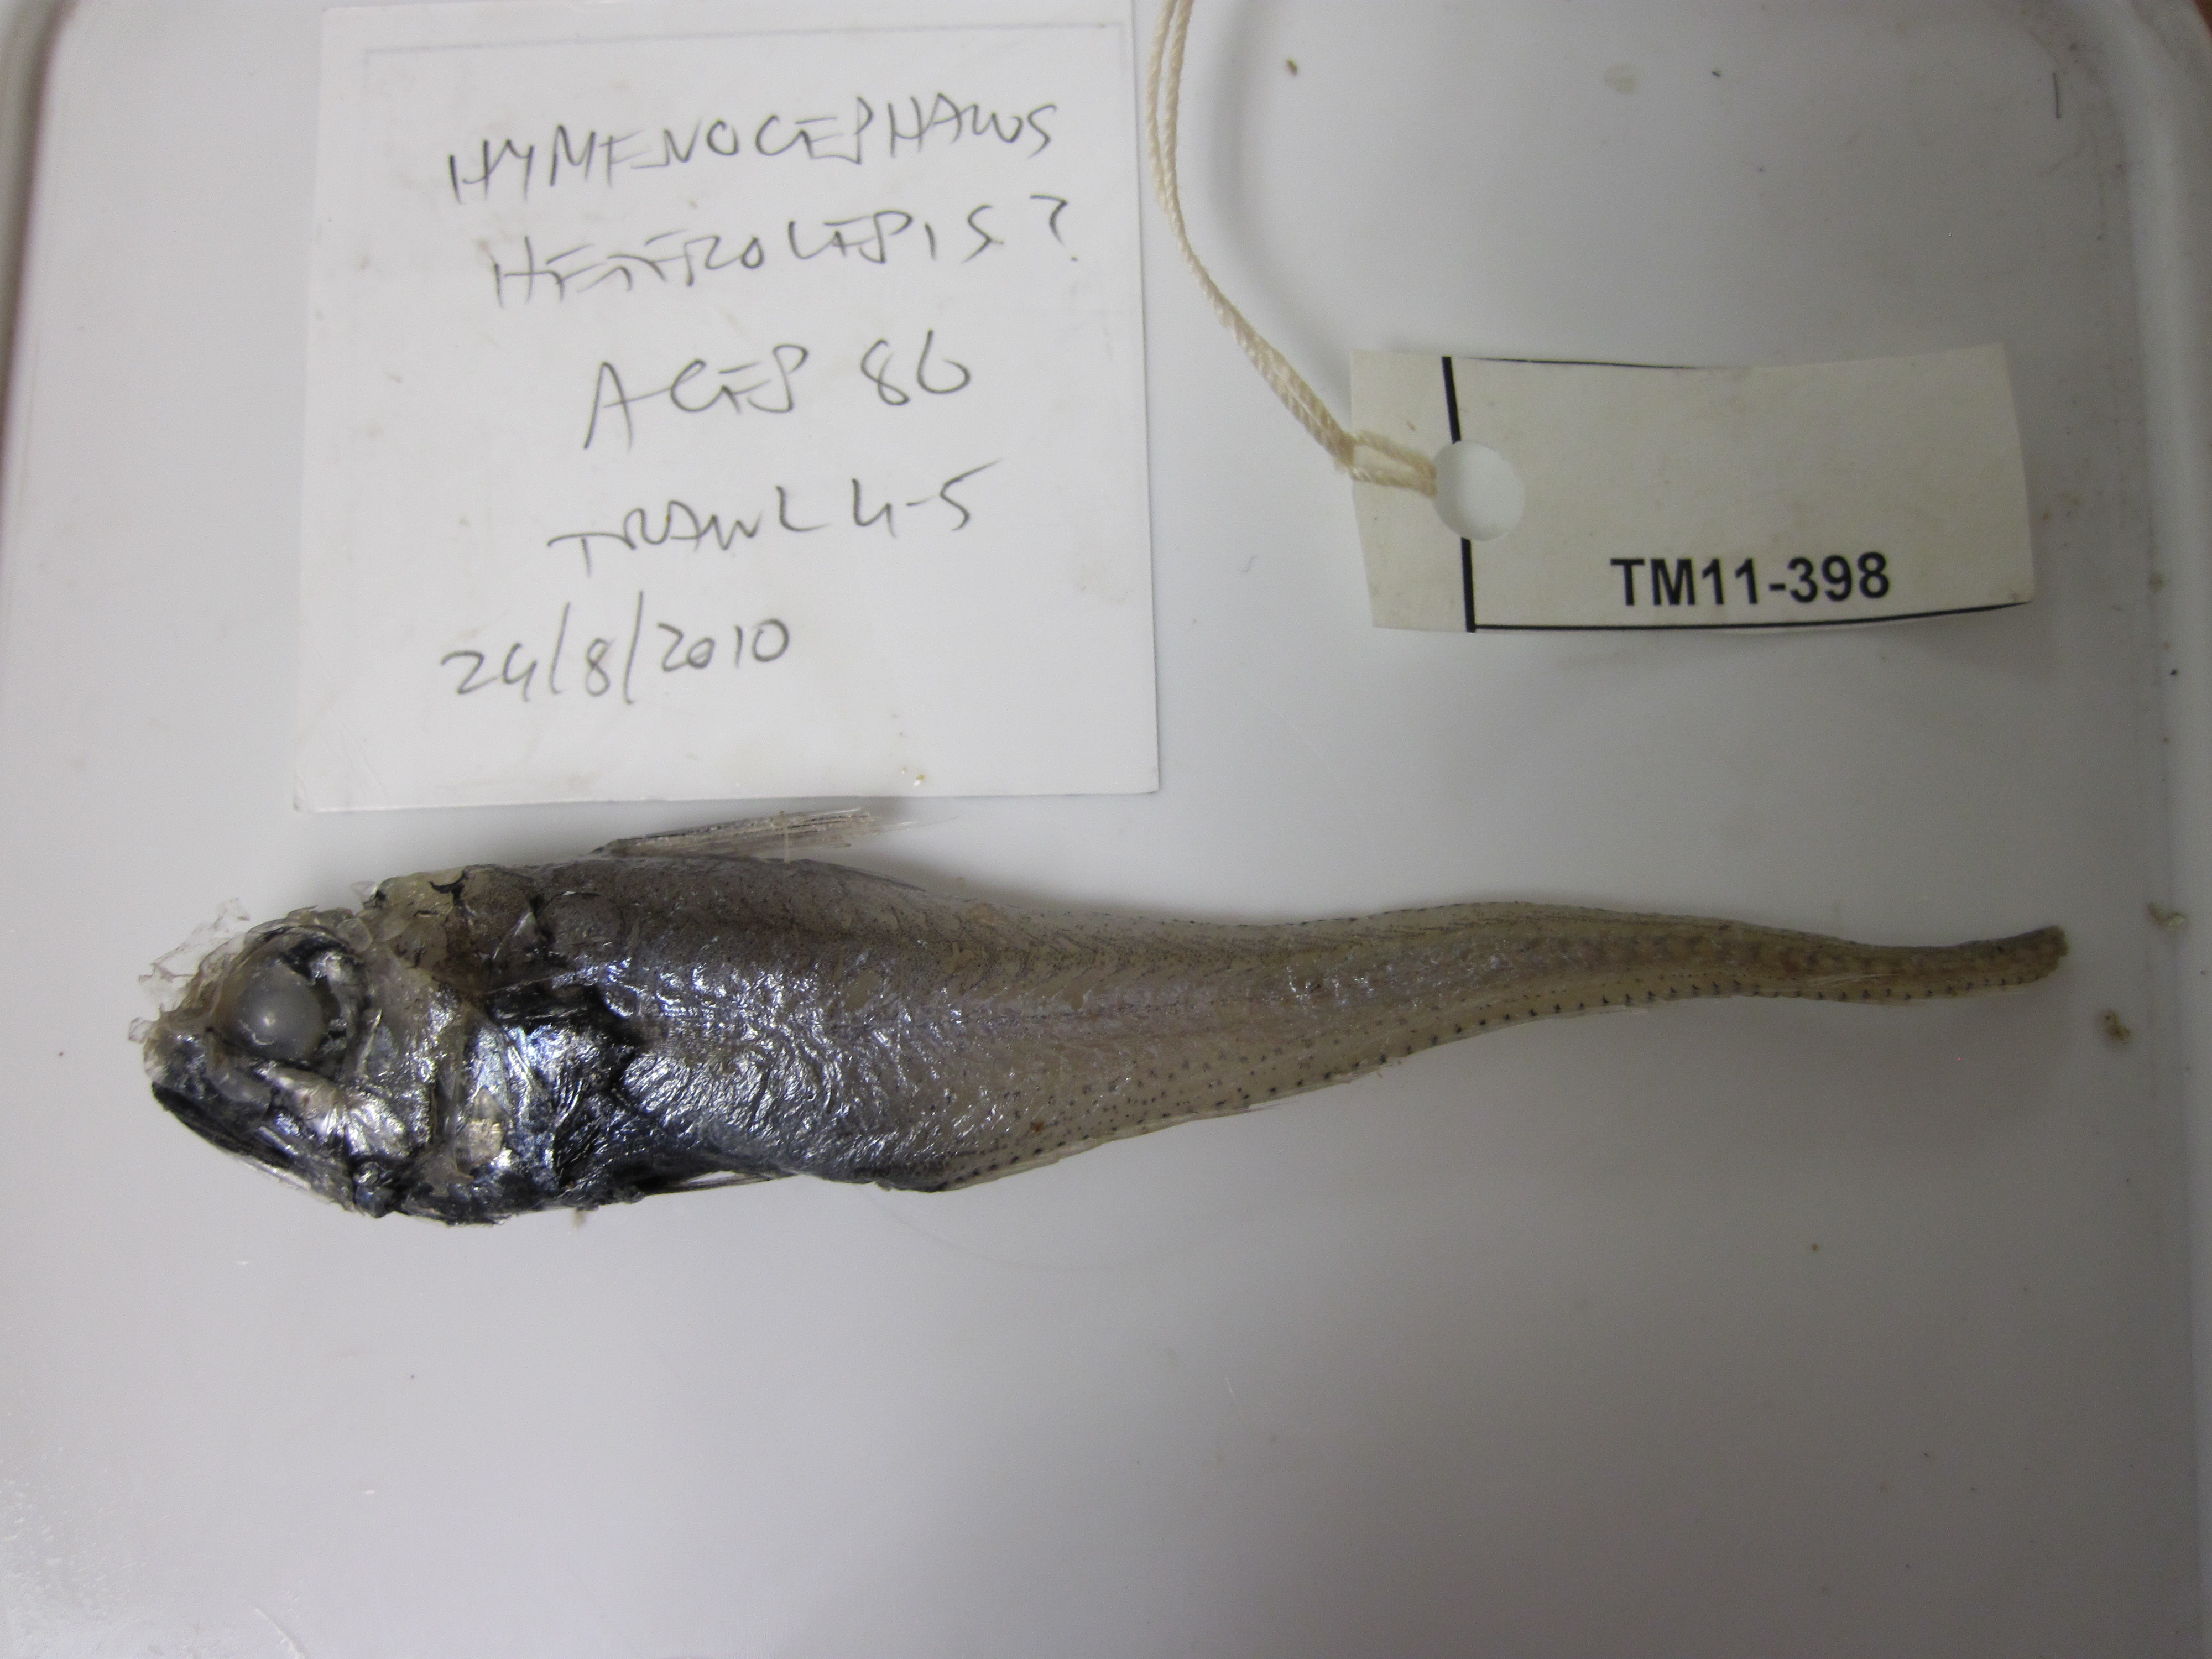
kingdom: Animalia
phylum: Chordata
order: Gadiformes
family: Macrouridae
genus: Hymenocephalus
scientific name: Hymenocephalus heterolepis
